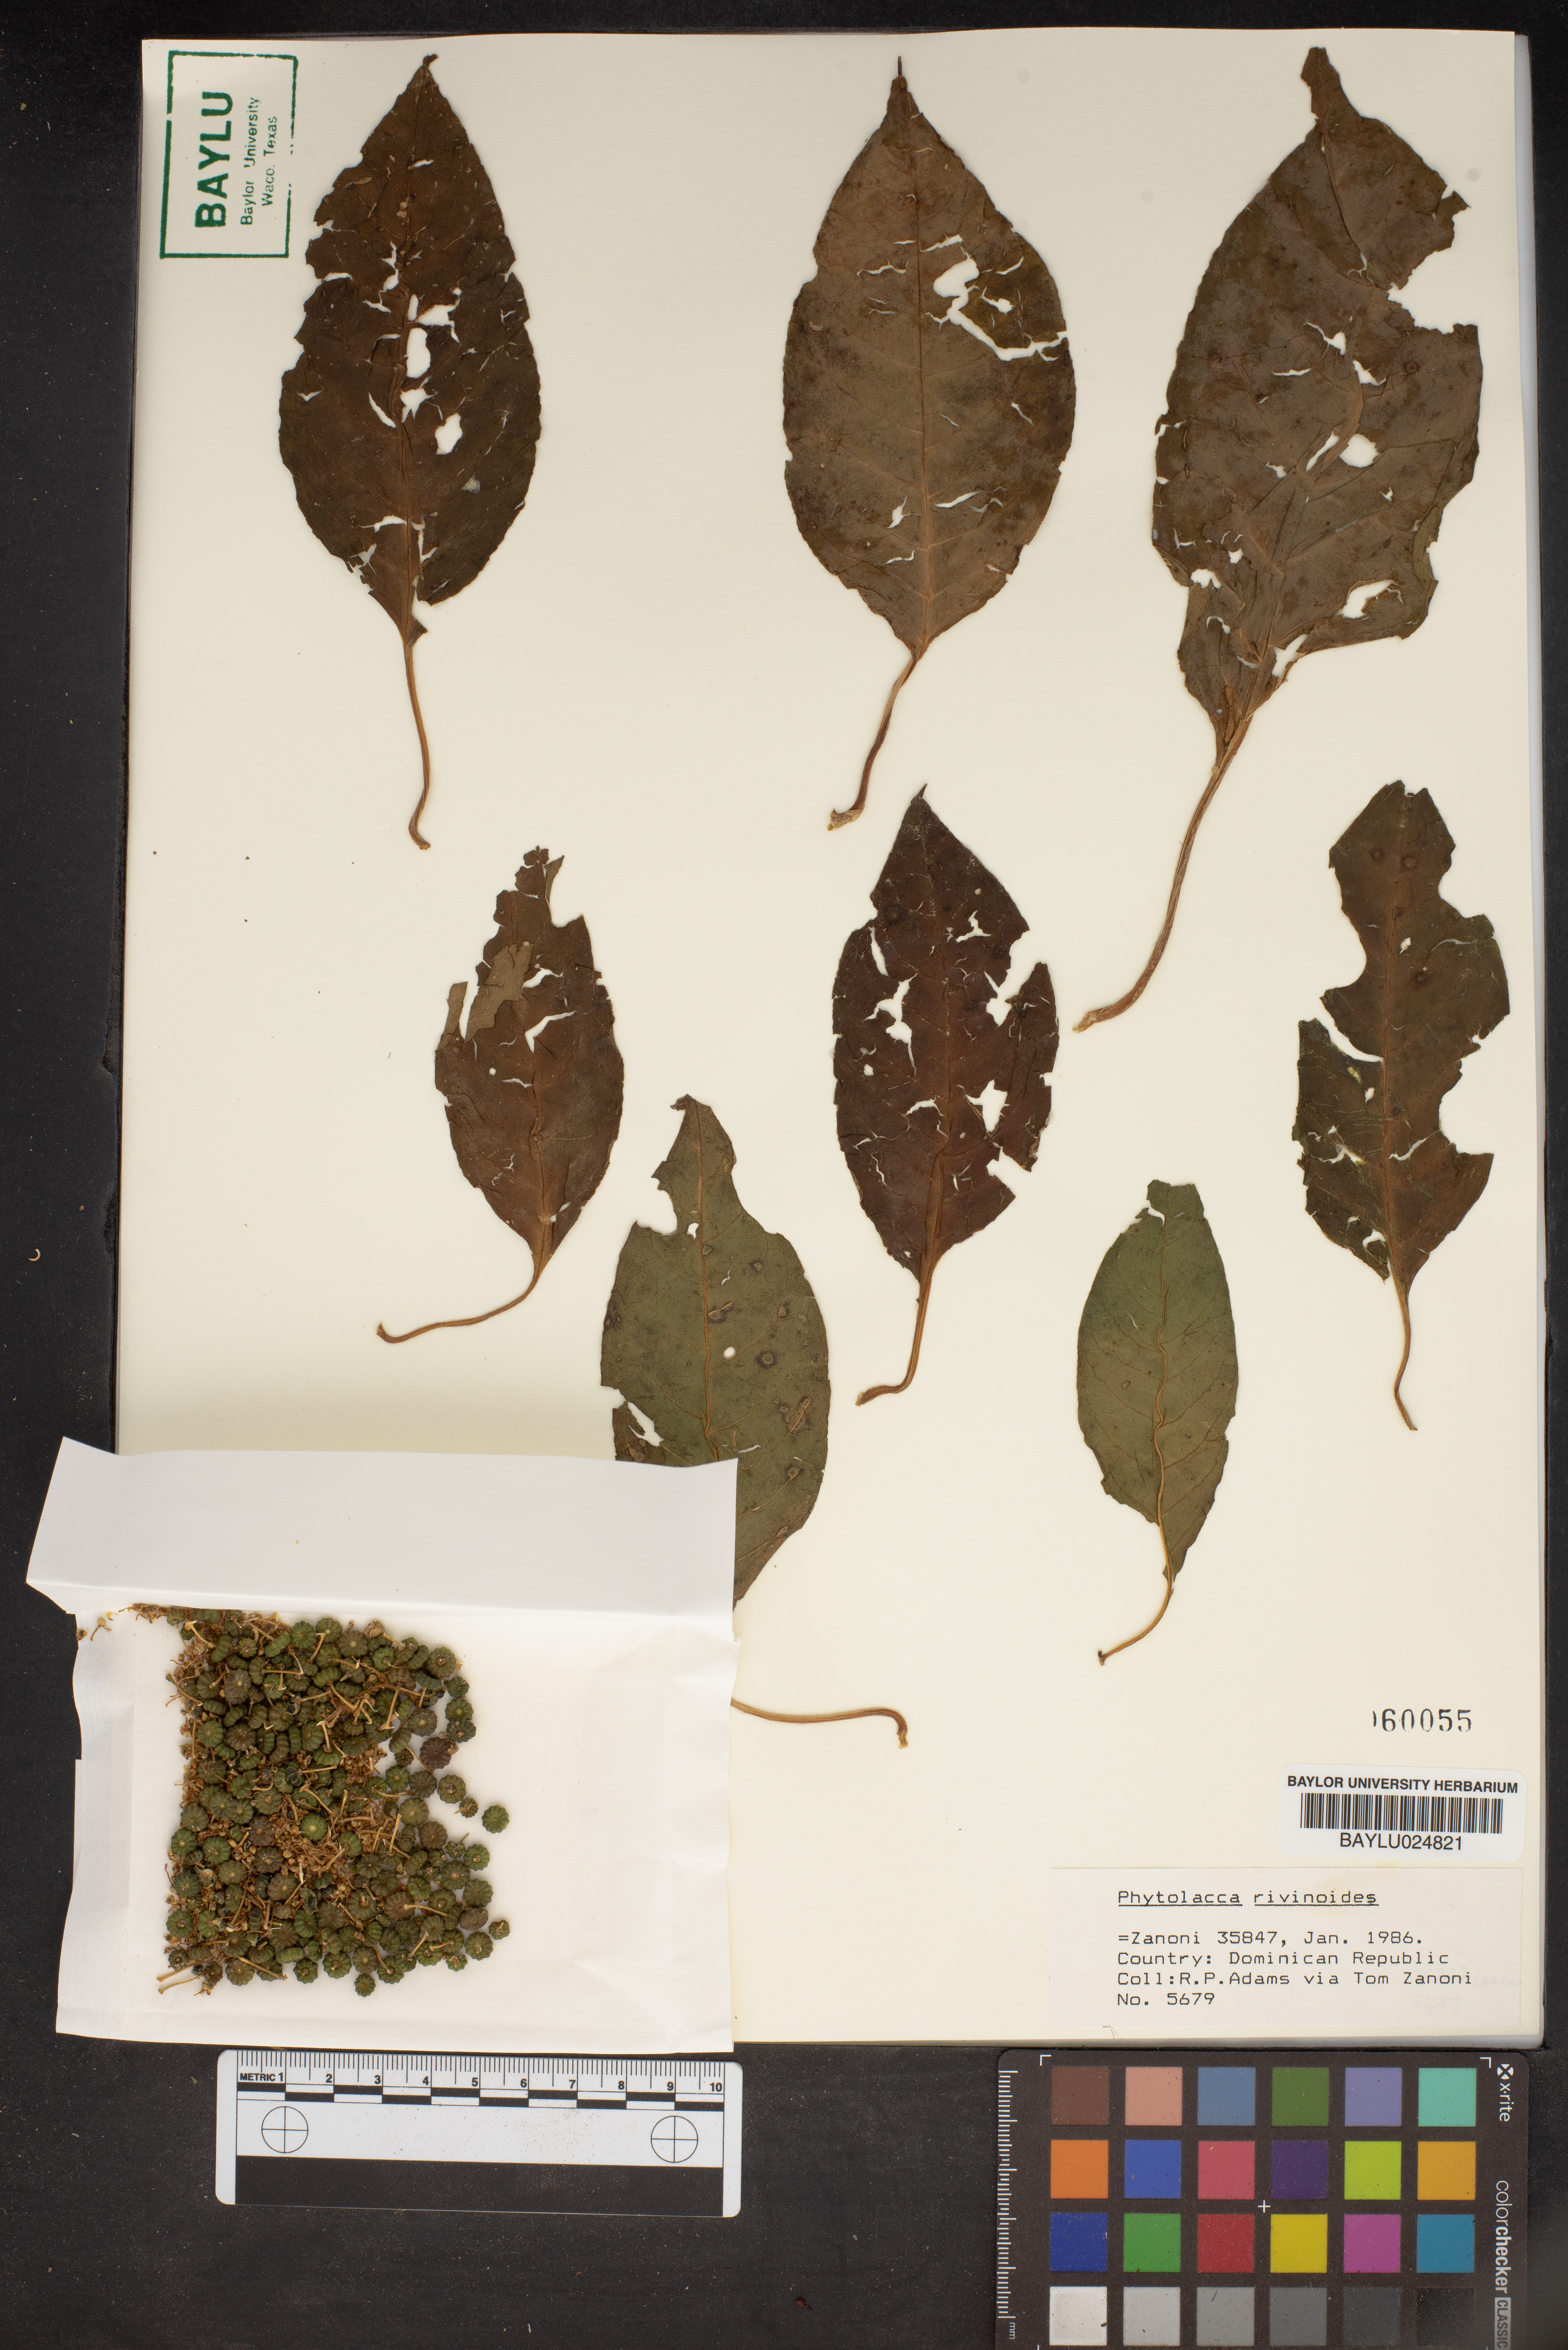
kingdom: Plantae
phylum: Tracheophyta
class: Magnoliopsida
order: Caryophyllales
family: Phytolaccaceae
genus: Phytolacca
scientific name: Phytolacca rivinoides
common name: Venezuelan pokeweed
